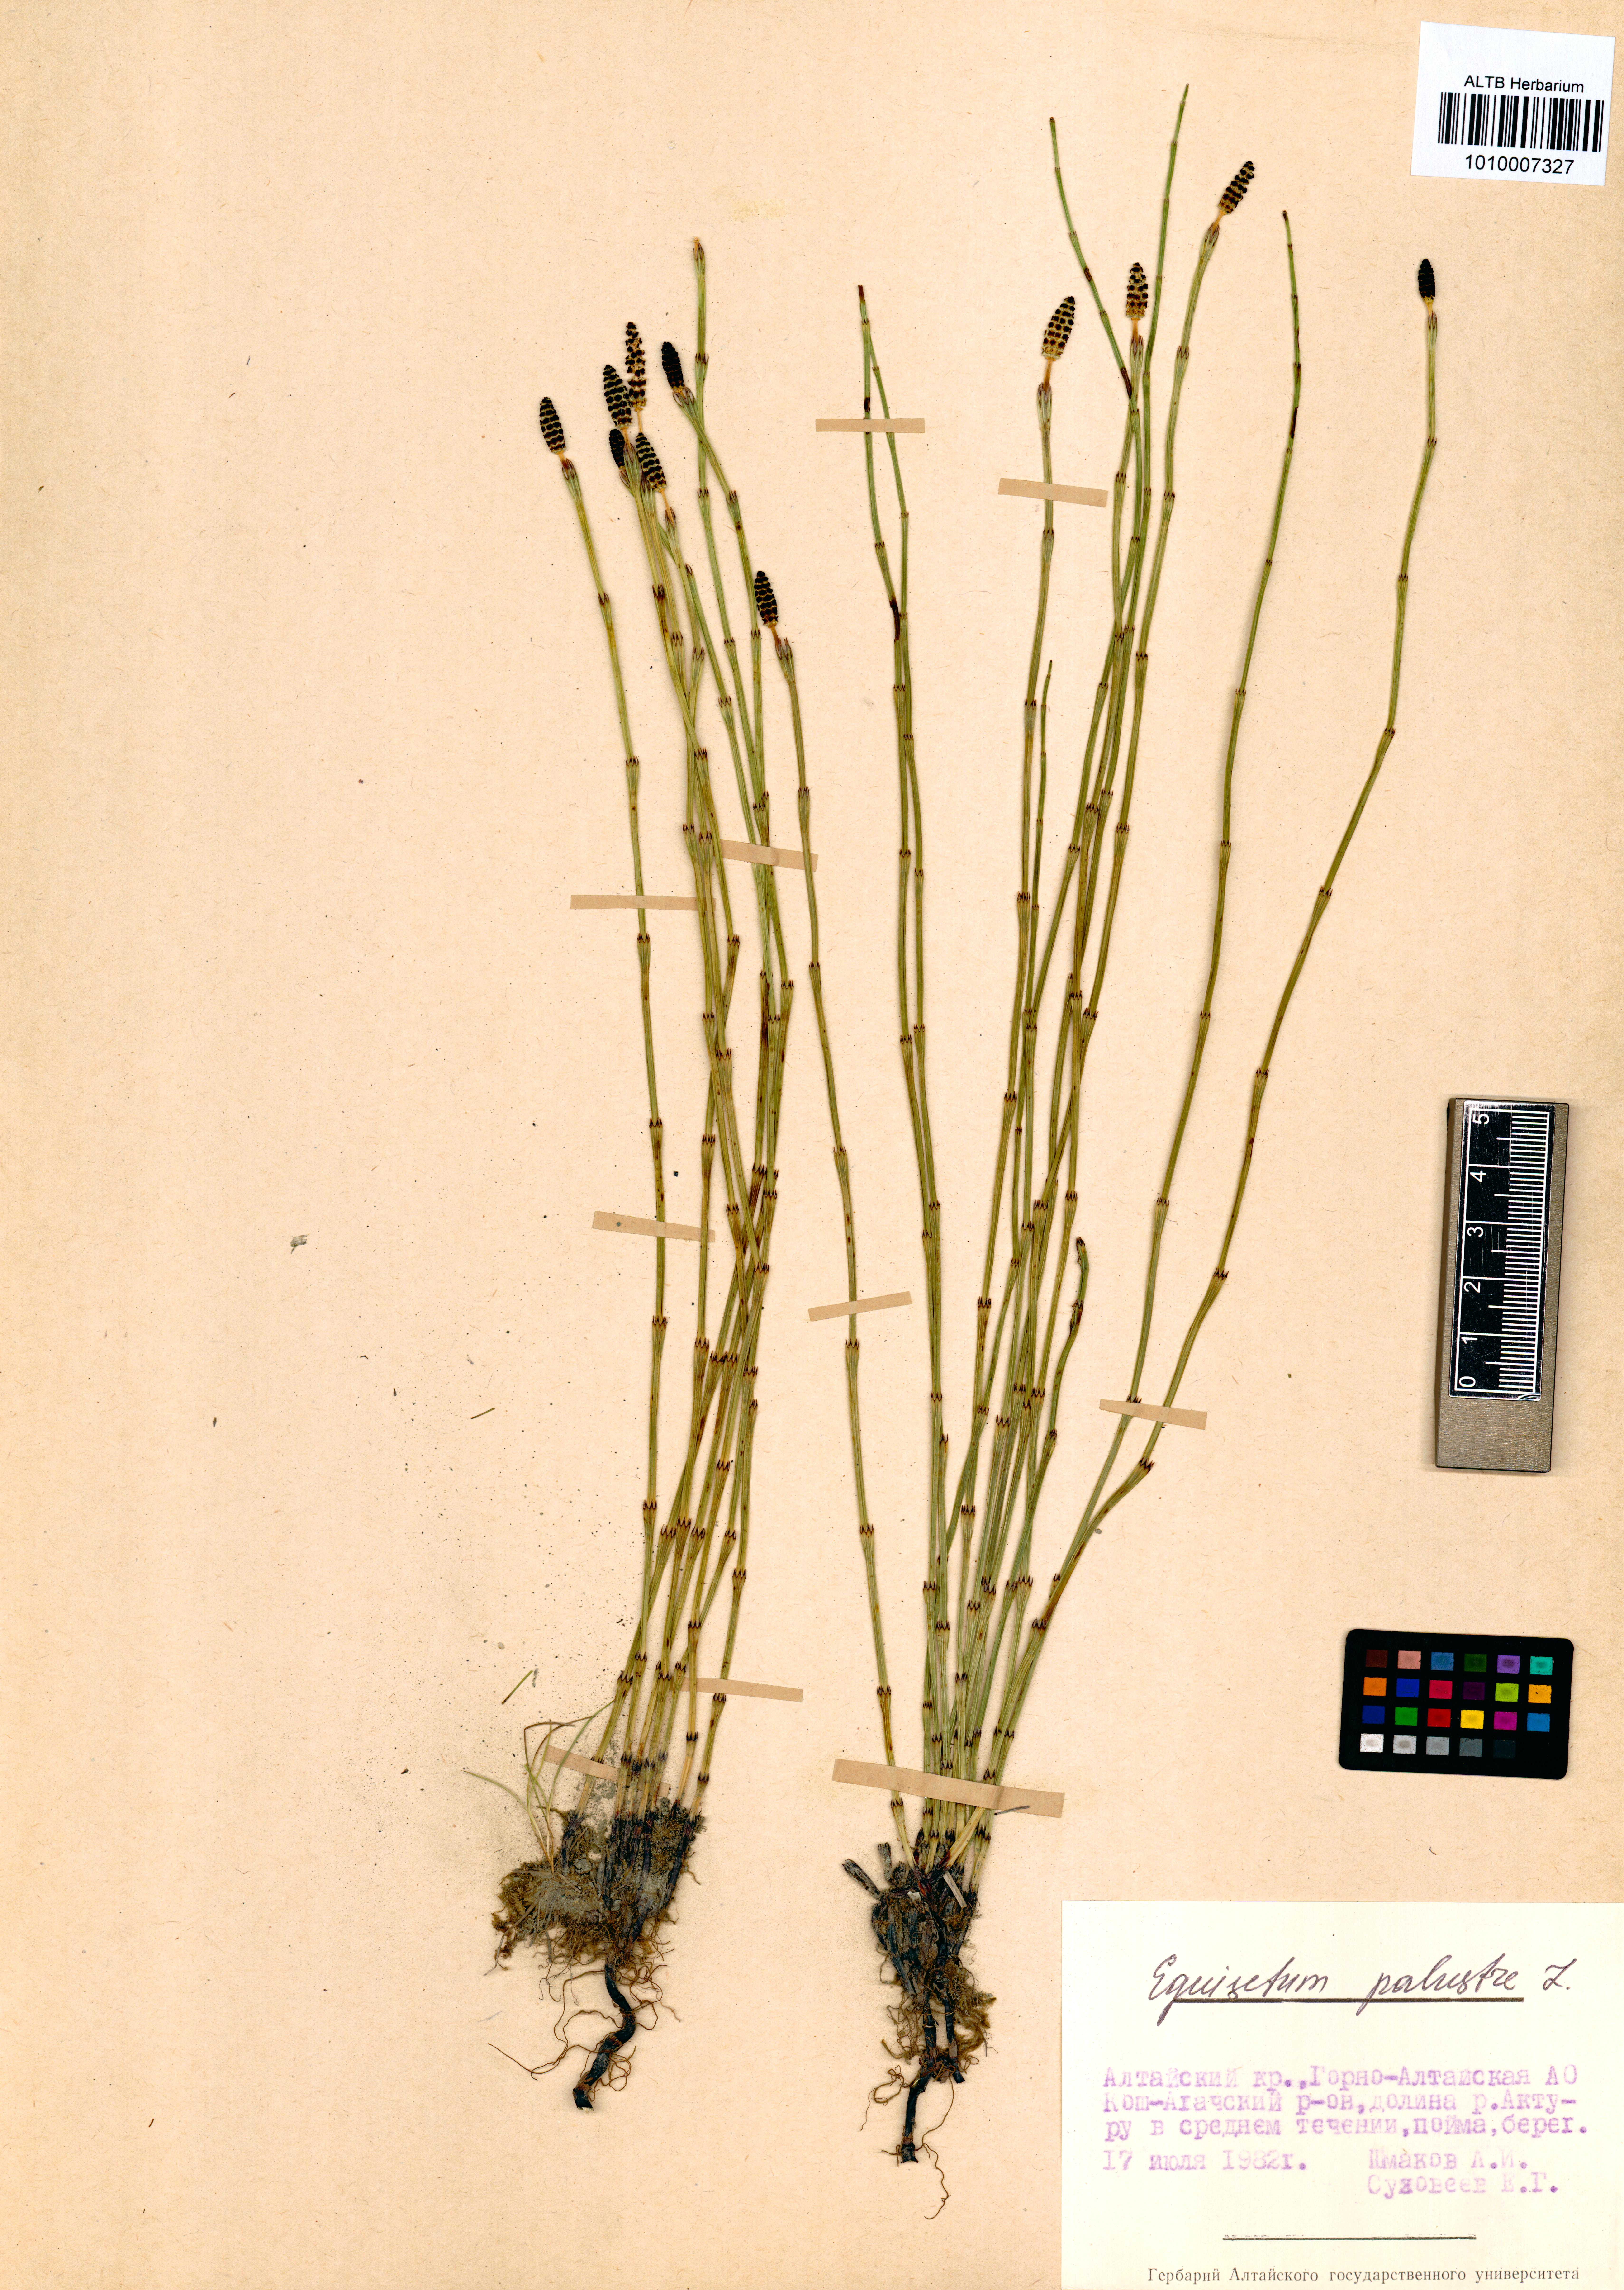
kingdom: Plantae
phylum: Tracheophyta
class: Polypodiopsida
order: Equisetales
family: Equisetaceae
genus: Equisetum
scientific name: Equisetum palustre
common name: Marsh horsetail
